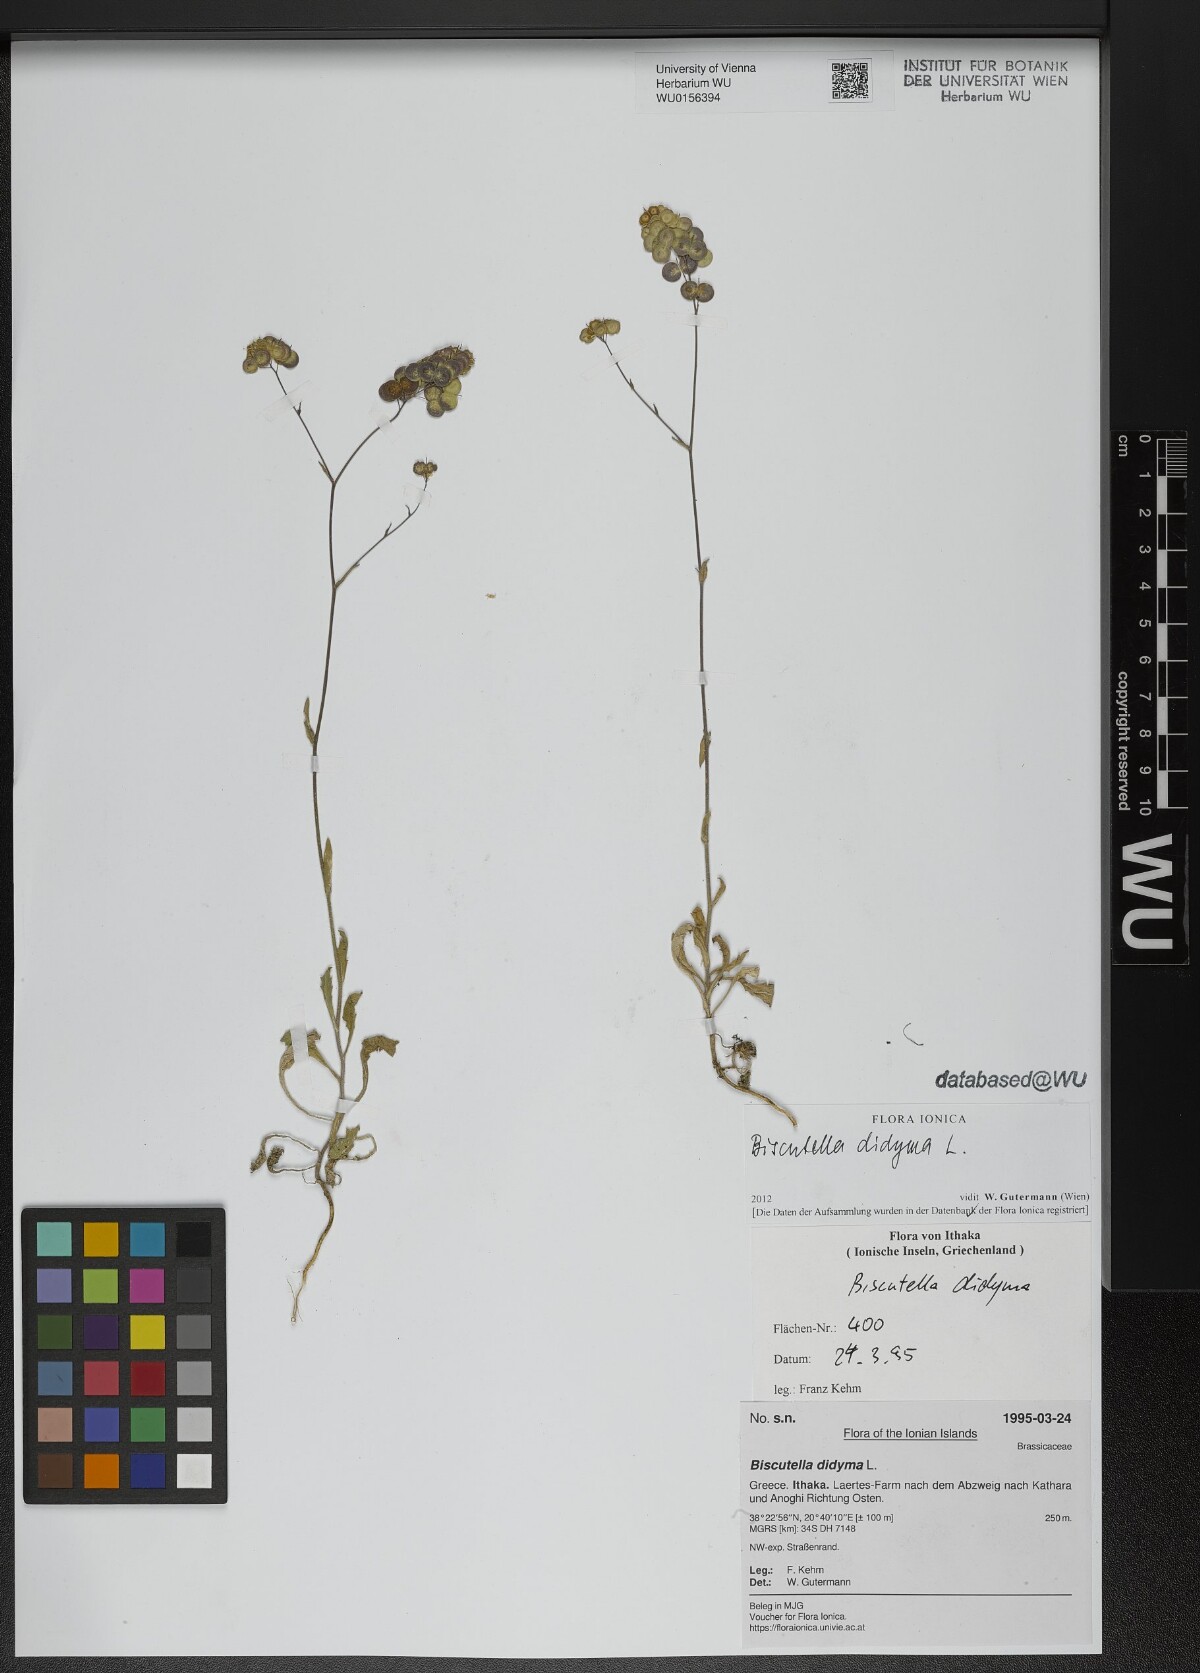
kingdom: Plantae
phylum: Tracheophyta
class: Magnoliopsida
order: Brassicales
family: Brassicaceae
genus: Biscutella
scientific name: Biscutella didyma
